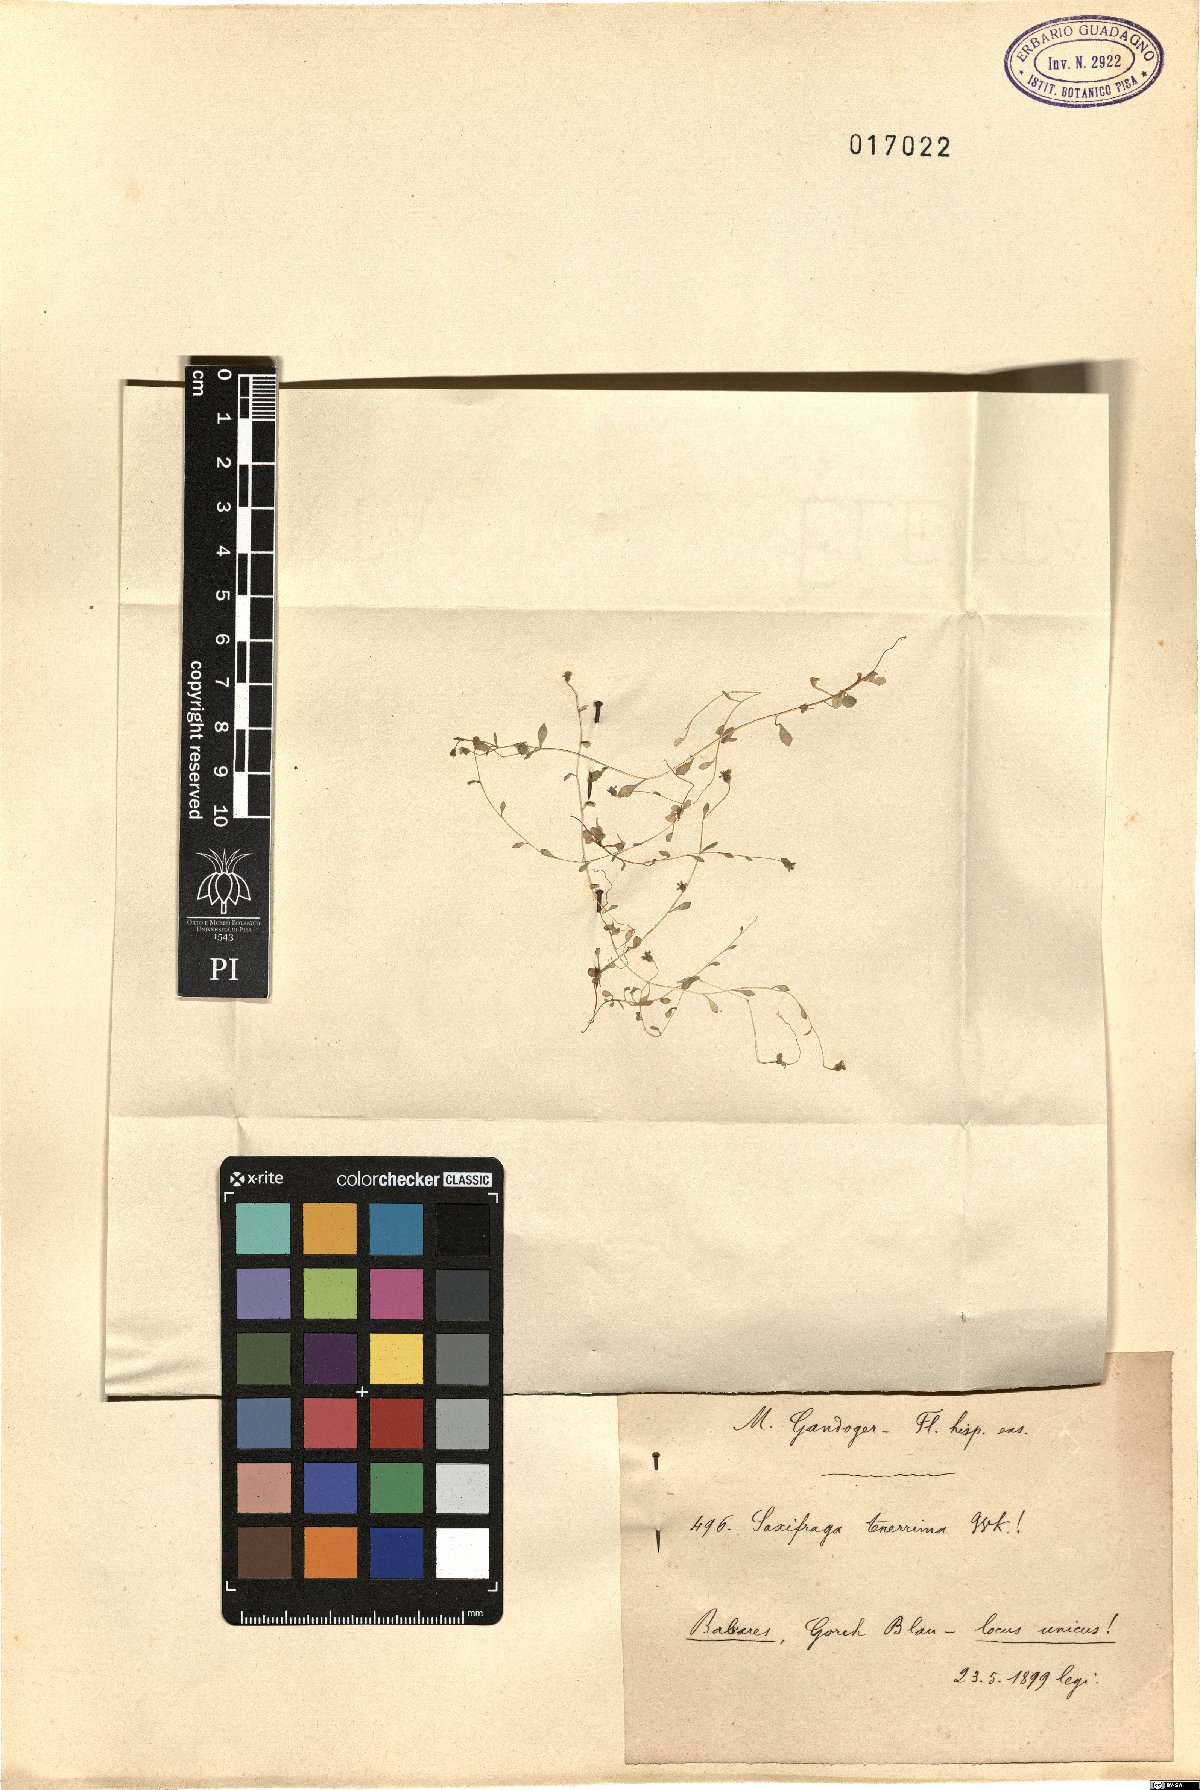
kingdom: Plantae
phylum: Tracheophyta
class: Magnoliopsida
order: Saxifragales
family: Saxifragaceae
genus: Saxifraga
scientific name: Saxifraga tridactylites
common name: Rue-leaved saxifrage
